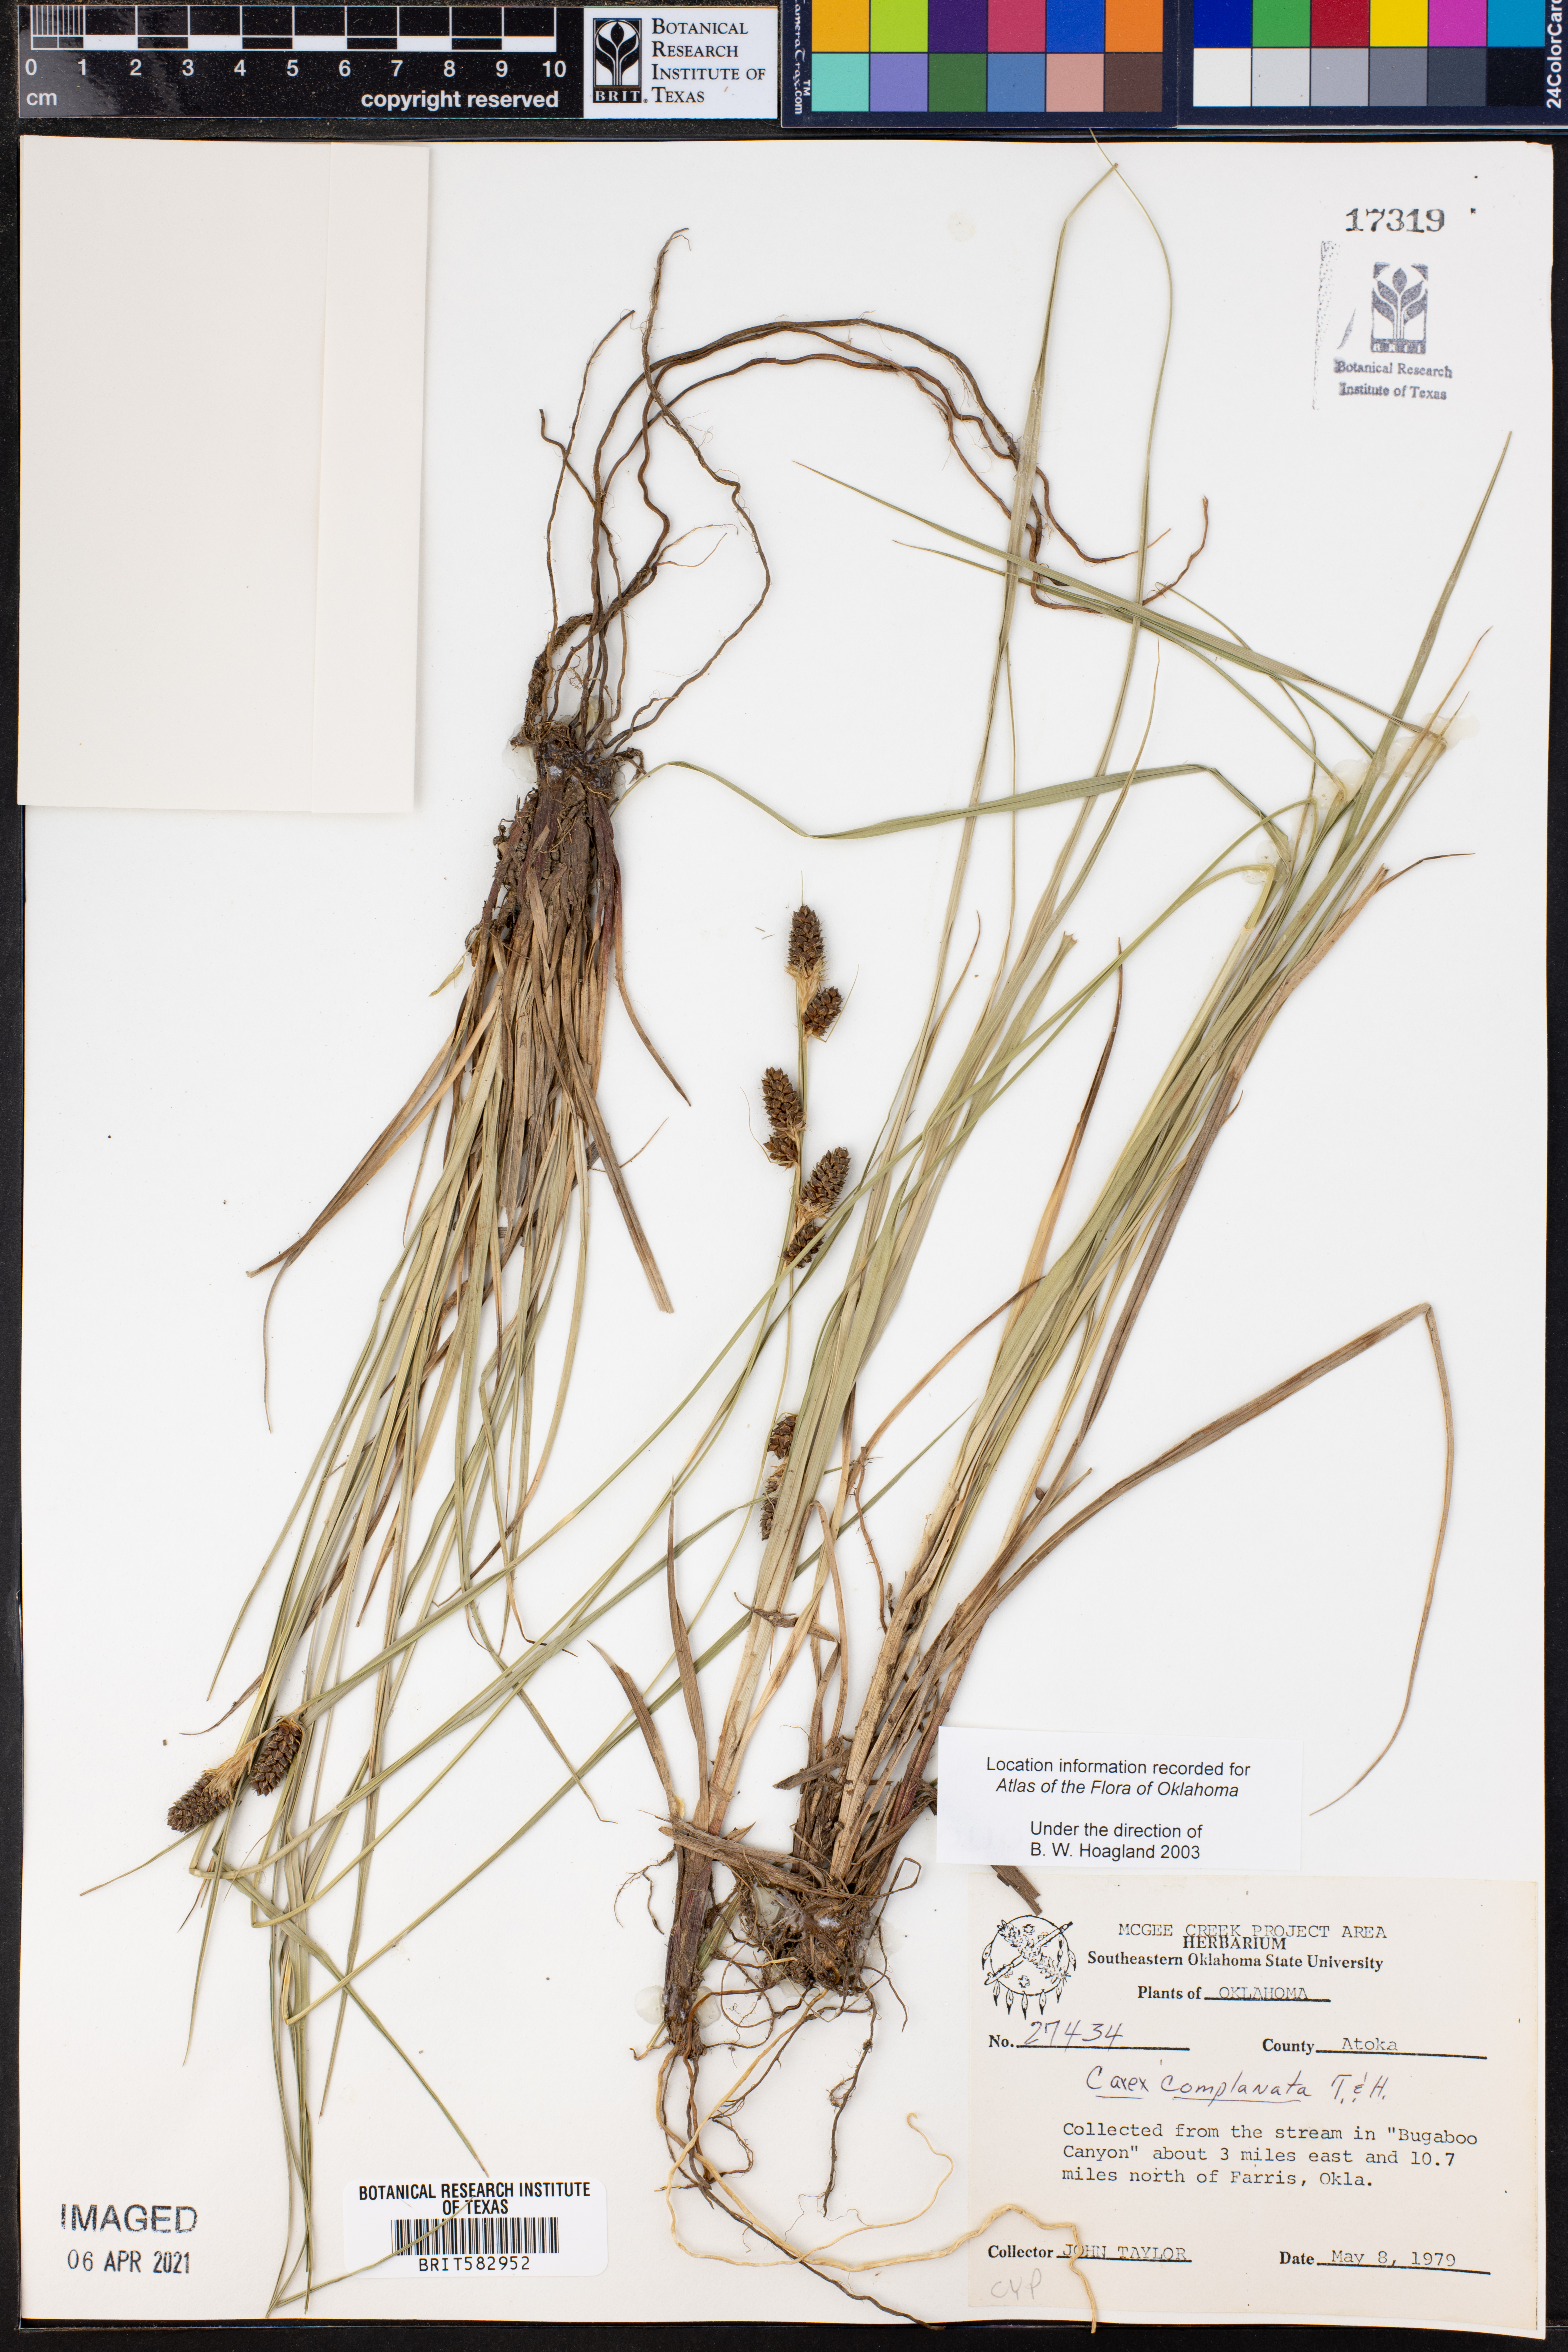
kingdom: Plantae
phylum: Tracheophyta
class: Liliopsida
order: Poales
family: Cyperaceae
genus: Carex
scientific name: Carex complanata
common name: Hirsute sedge
